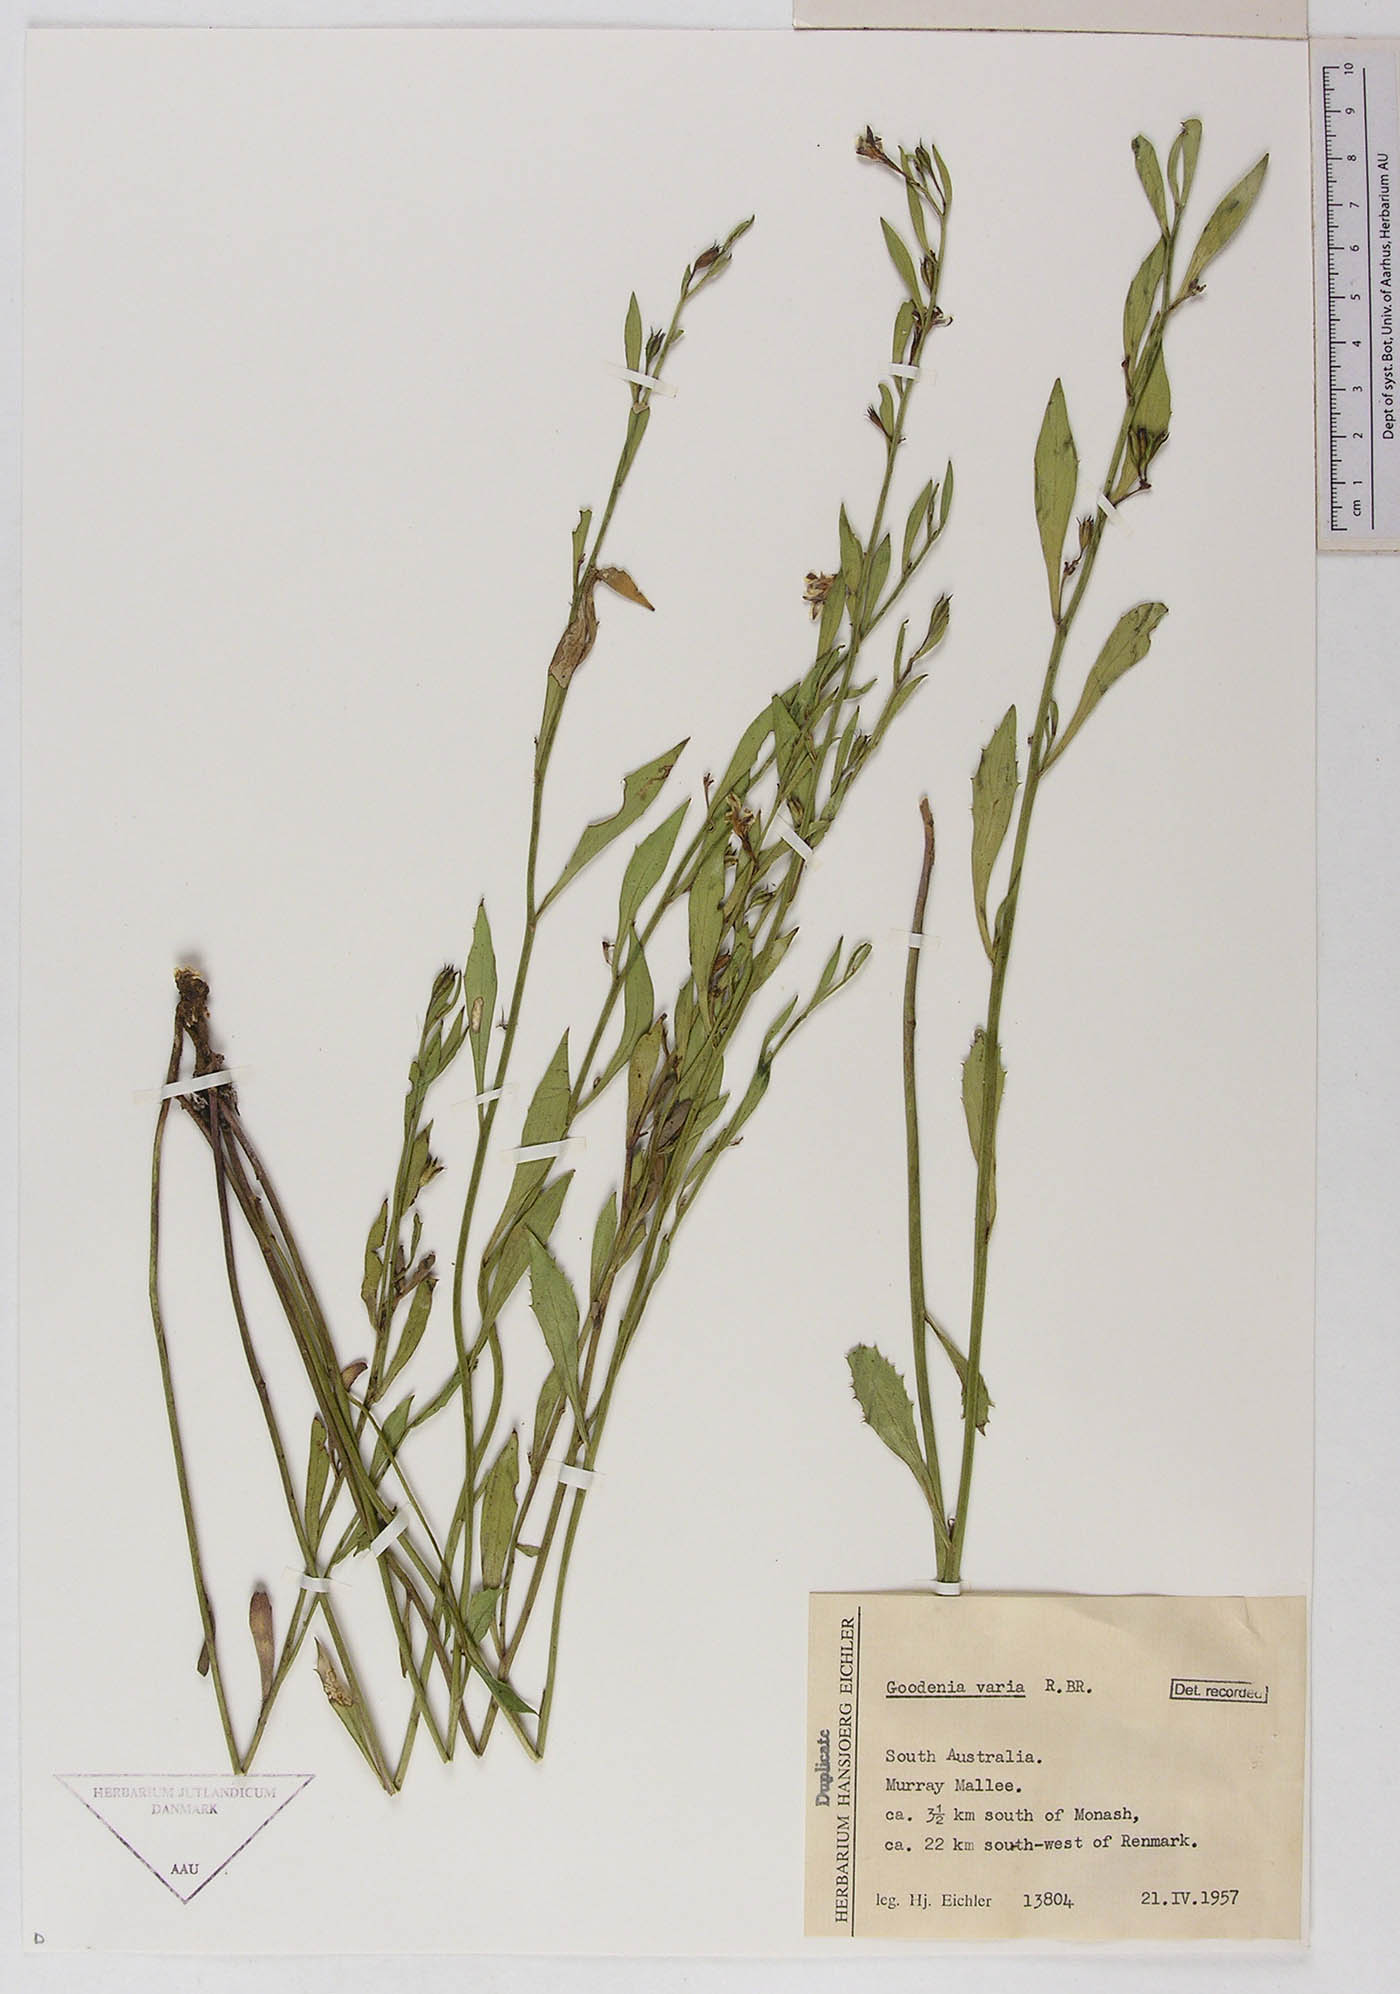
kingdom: Plantae
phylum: Tracheophyta
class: Magnoliopsida
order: Asterales
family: Goodeniaceae
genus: Goodenia
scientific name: Goodenia varia
